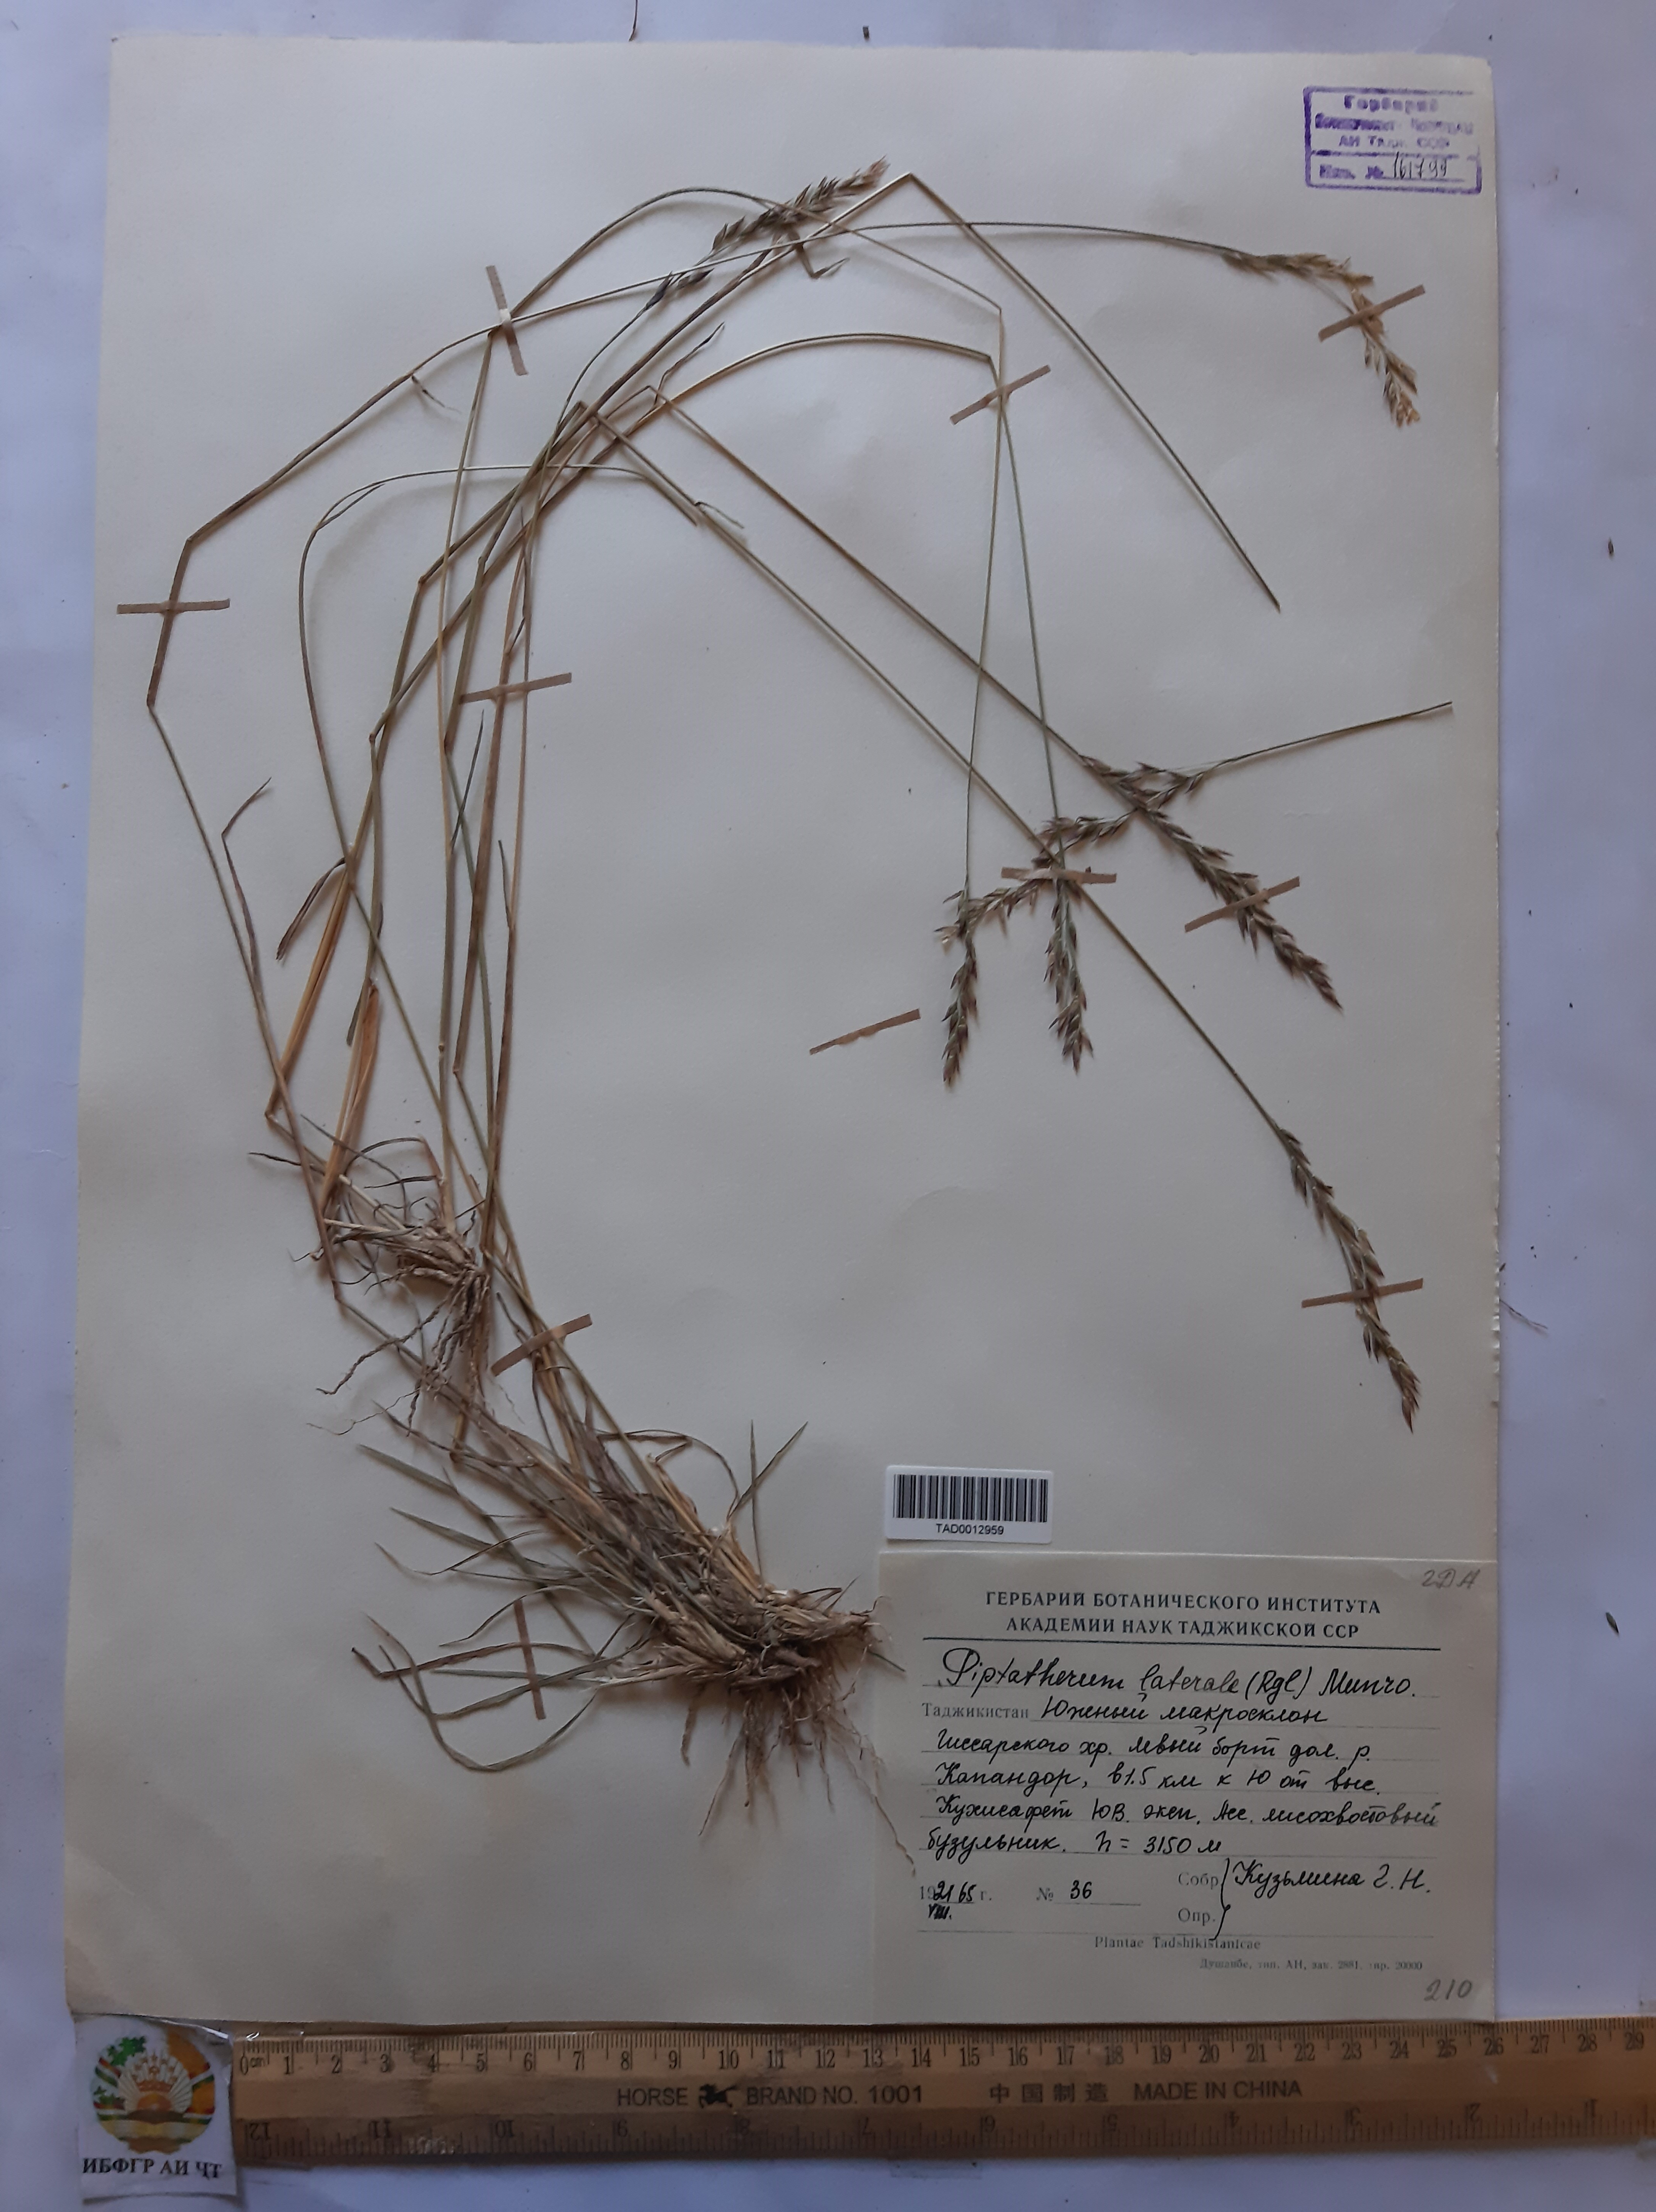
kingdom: Plantae
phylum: Tracheophyta
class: Liliopsida
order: Poales
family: Poaceae
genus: Piptatherum
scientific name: Piptatherum laterale
